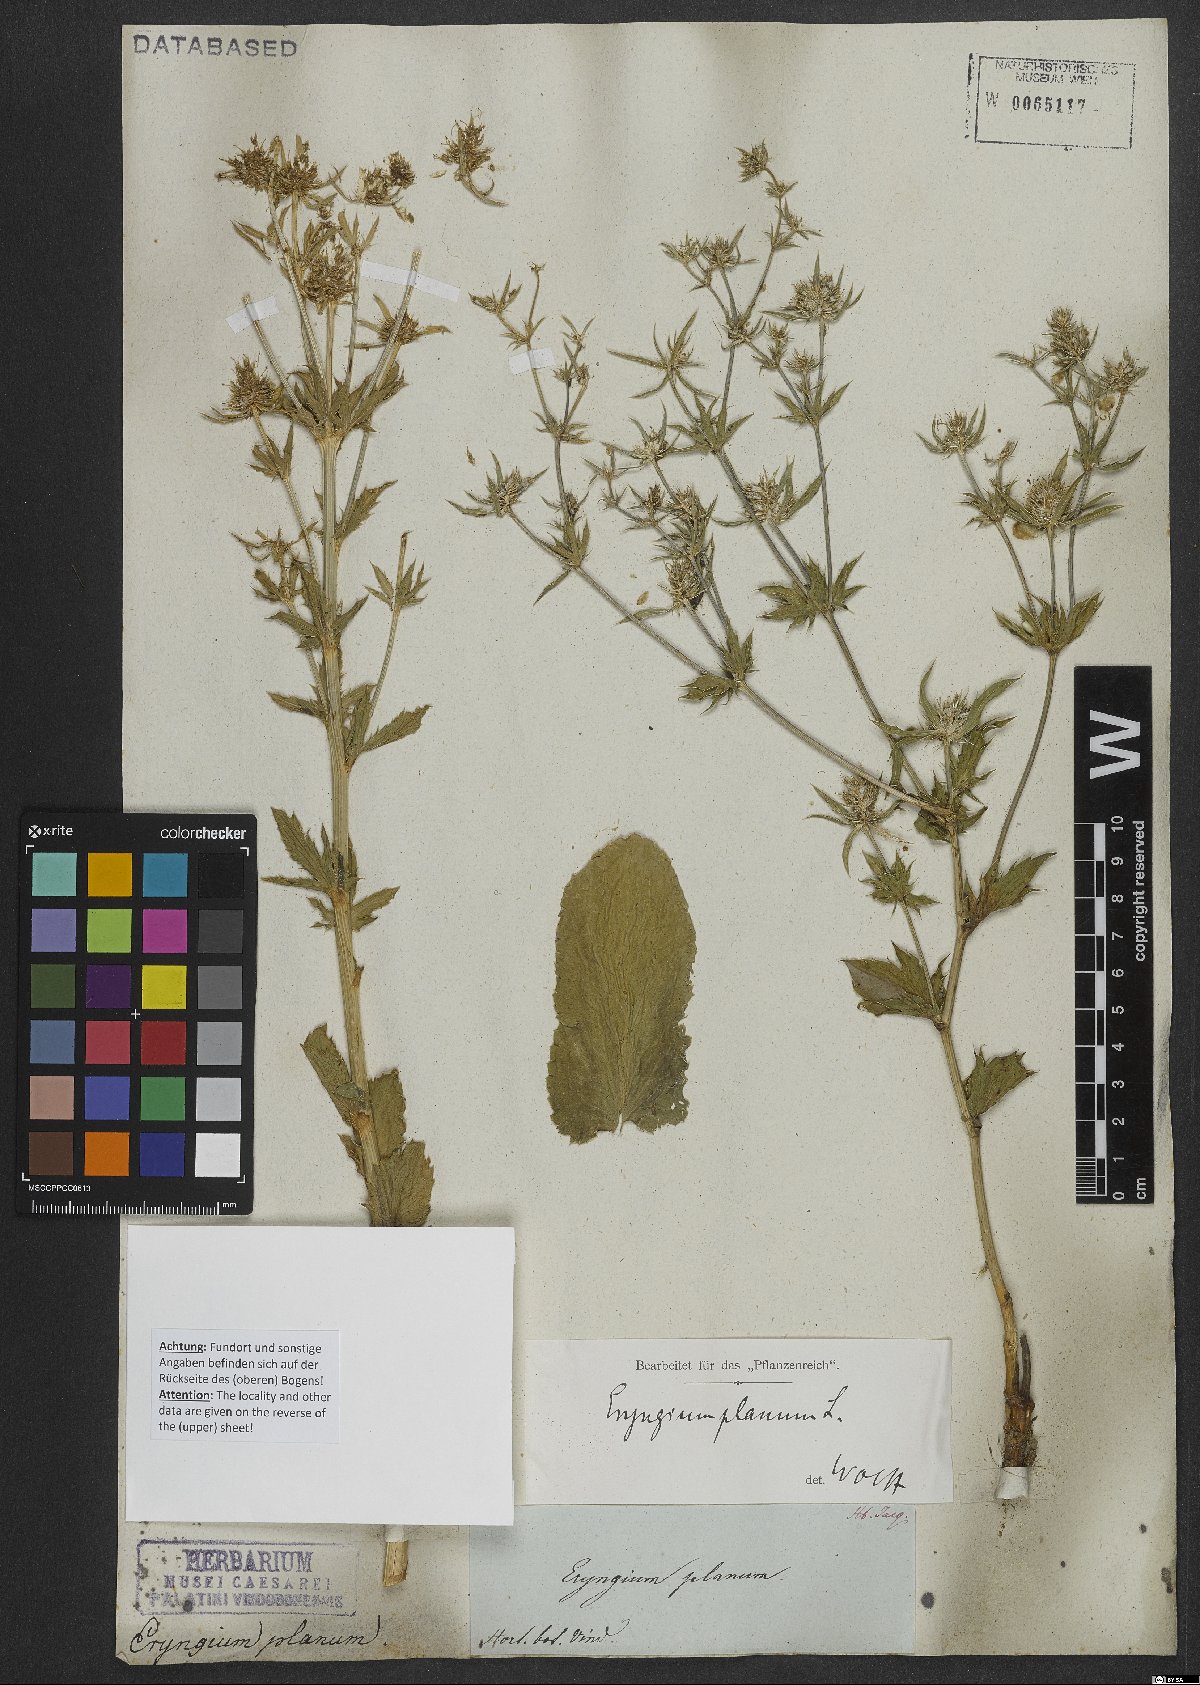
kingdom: Plantae
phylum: Tracheophyta
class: Magnoliopsida
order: Apiales
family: Apiaceae
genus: Eryngium
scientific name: Eryngium planum
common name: Blue eryngo
